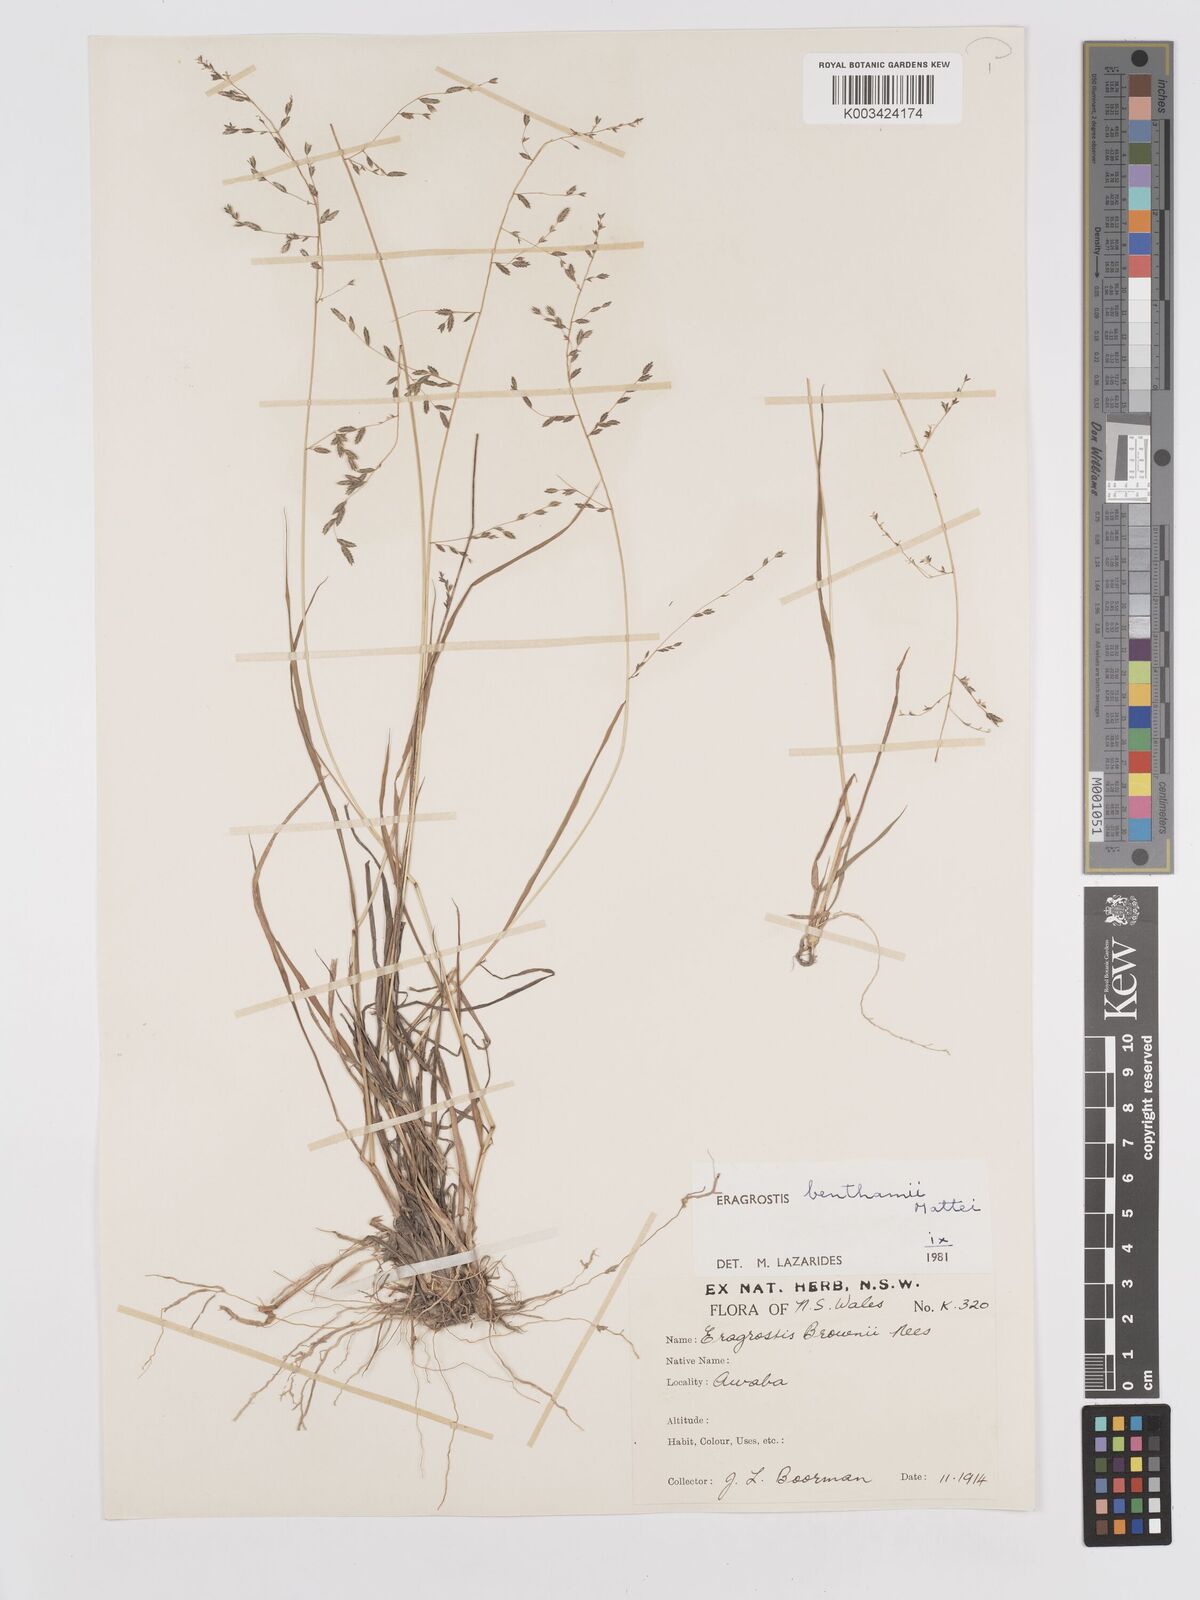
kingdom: Plantae
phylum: Tracheophyta
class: Liliopsida
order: Poales
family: Poaceae
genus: Eragrostis
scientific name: Eragrostis brownii
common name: Lovegrass
